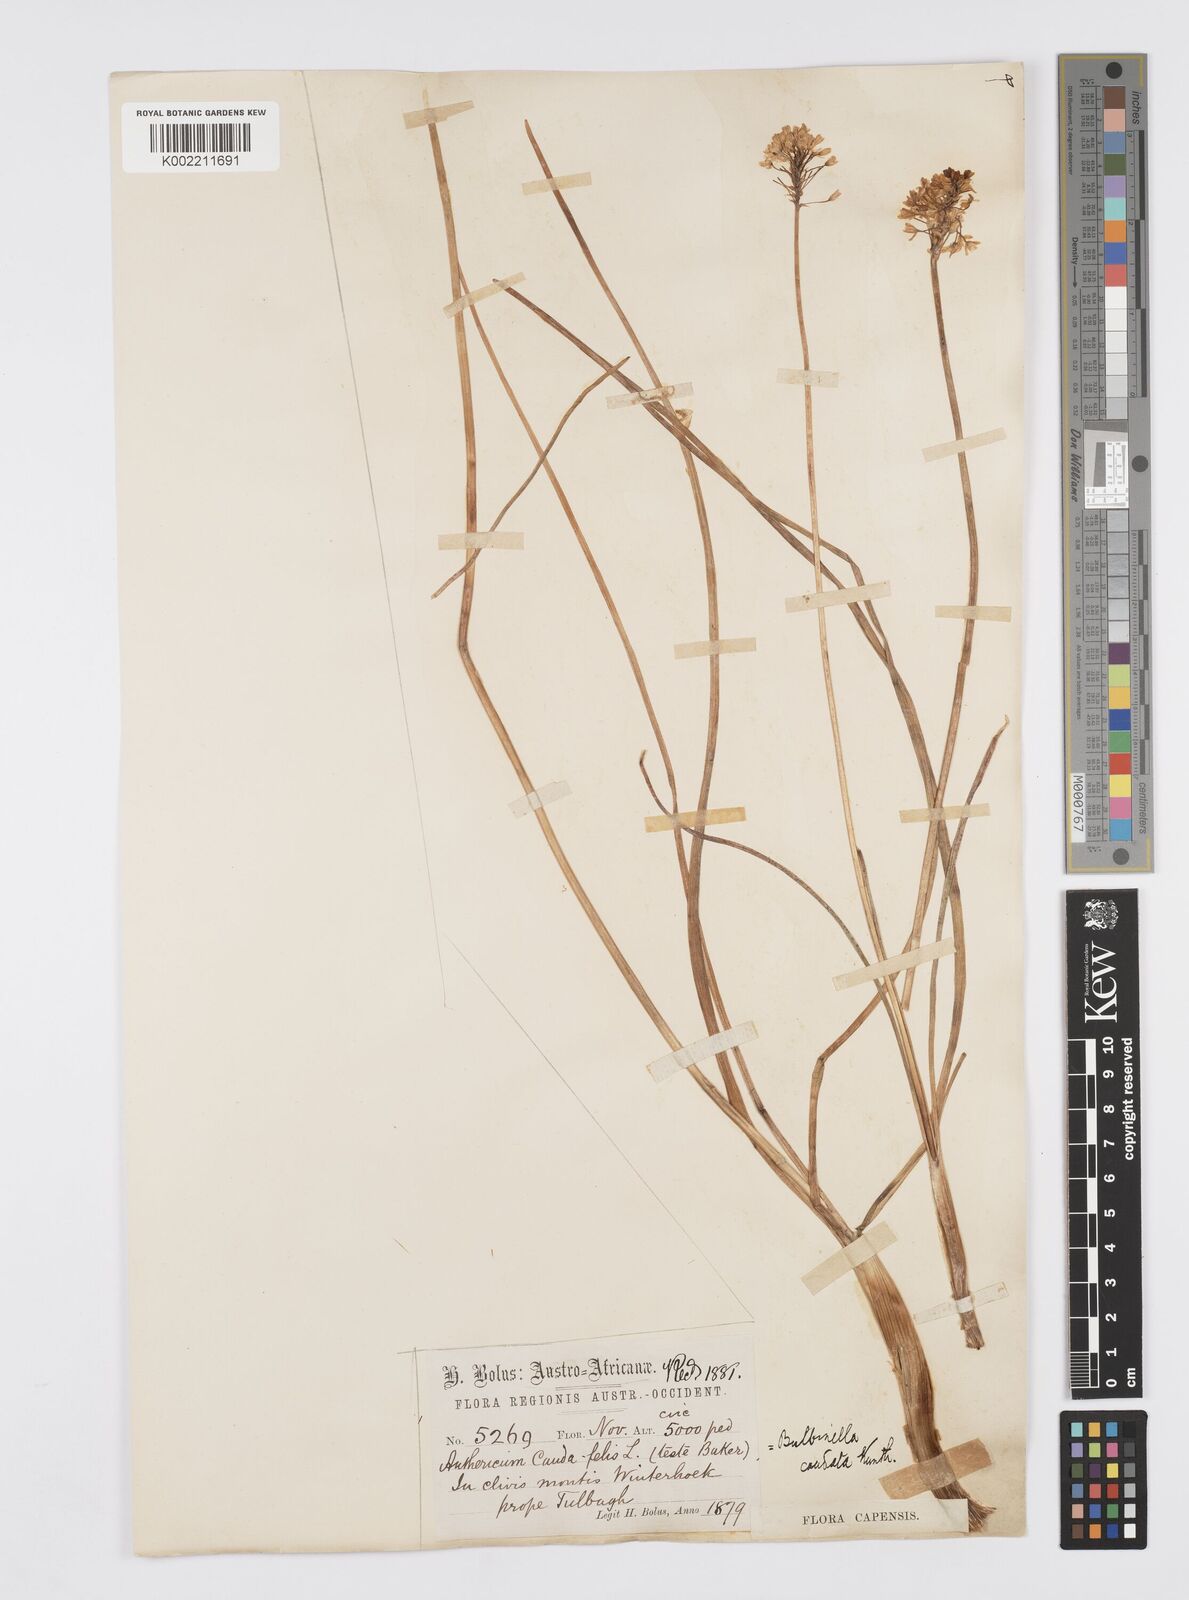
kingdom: Plantae
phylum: Tracheophyta
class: Liliopsida
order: Asparagales
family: Asphodelaceae
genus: Bulbinella
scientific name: Bulbinella cauda-felis
